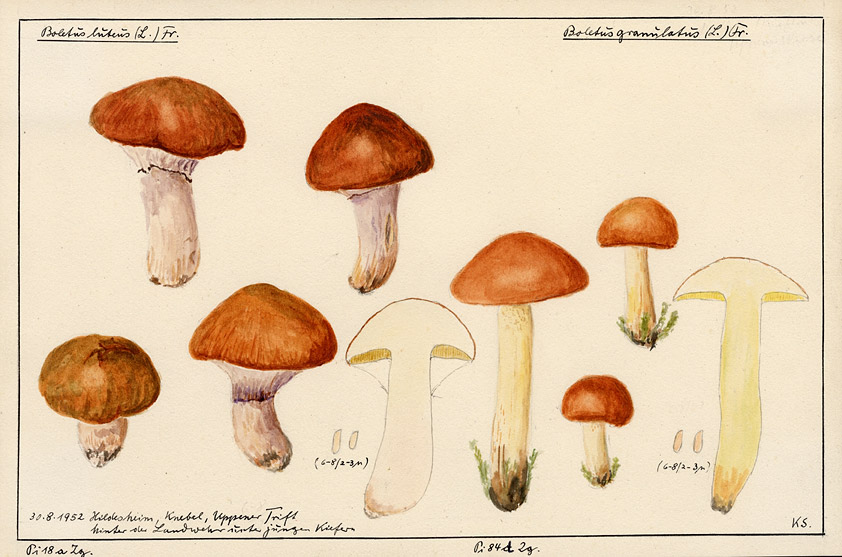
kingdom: Fungi
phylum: Basidiomycota
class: Agaricomycetes
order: Boletales
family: Suillaceae
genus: Suillus
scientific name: Suillus granulatus
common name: Weeping bolete
